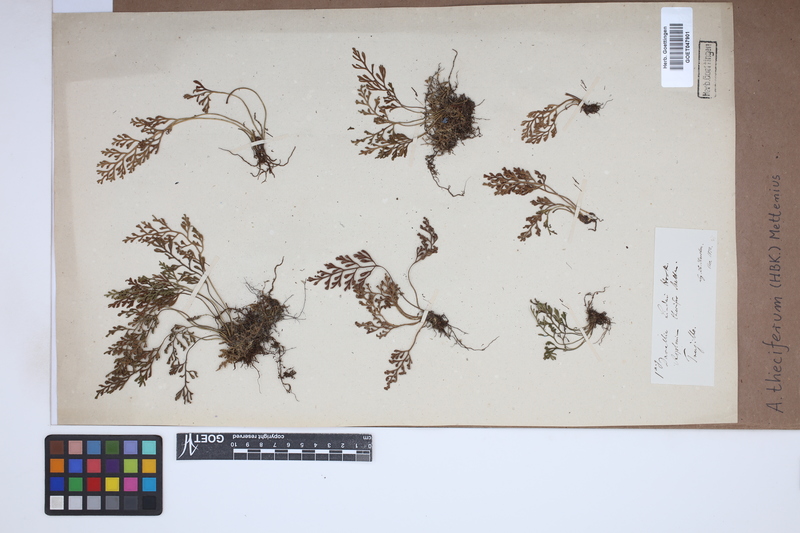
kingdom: Plantae
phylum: Tracheophyta
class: Polypodiopsida
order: Polypodiales
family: Aspleniaceae
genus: Asplenium
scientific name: Asplenium theciferum
